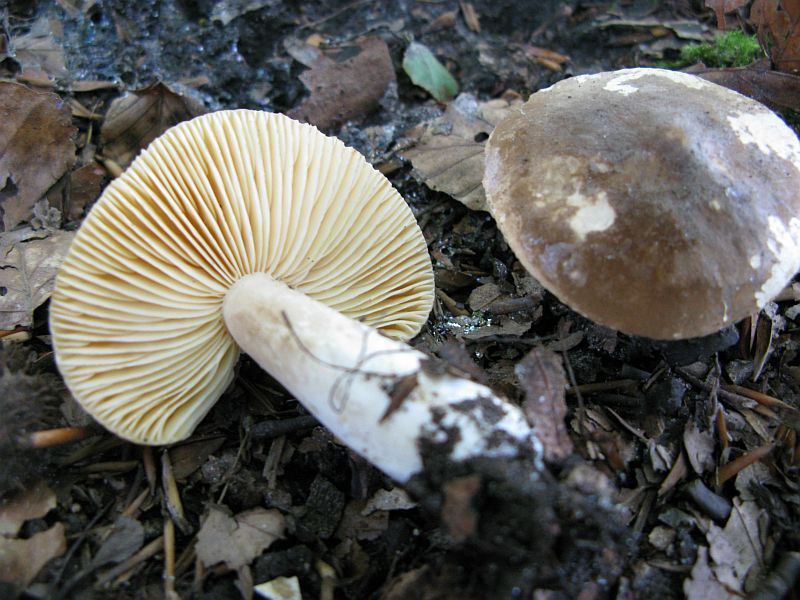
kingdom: Fungi
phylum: Basidiomycota
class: Agaricomycetes
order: Russulales
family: Russulaceae
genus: Lactarius
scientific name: Lactarius fuliginosus
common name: sodbrun mælkehat
